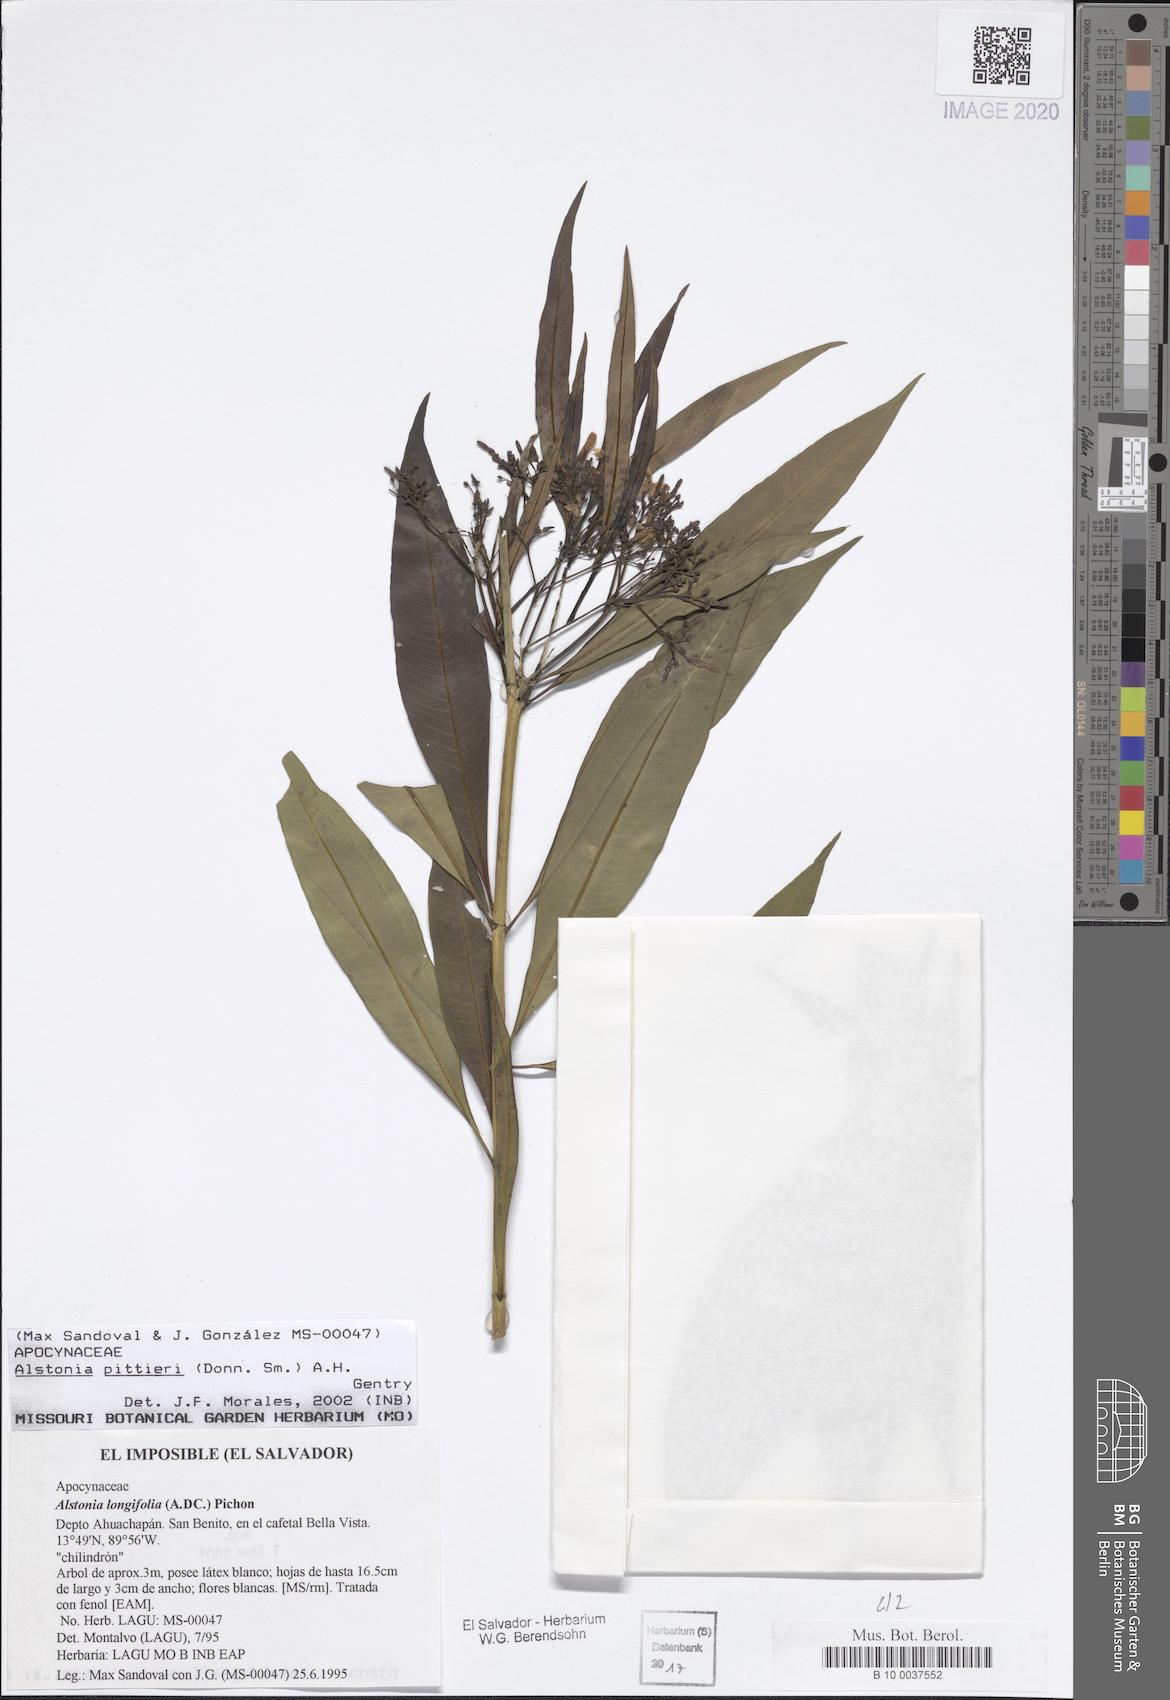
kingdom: Plantae
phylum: Tracheophyta
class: Magnoliopsida
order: Gentianales
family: Apocynaceae
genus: Tonduzia
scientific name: Tonduzia longifolia
